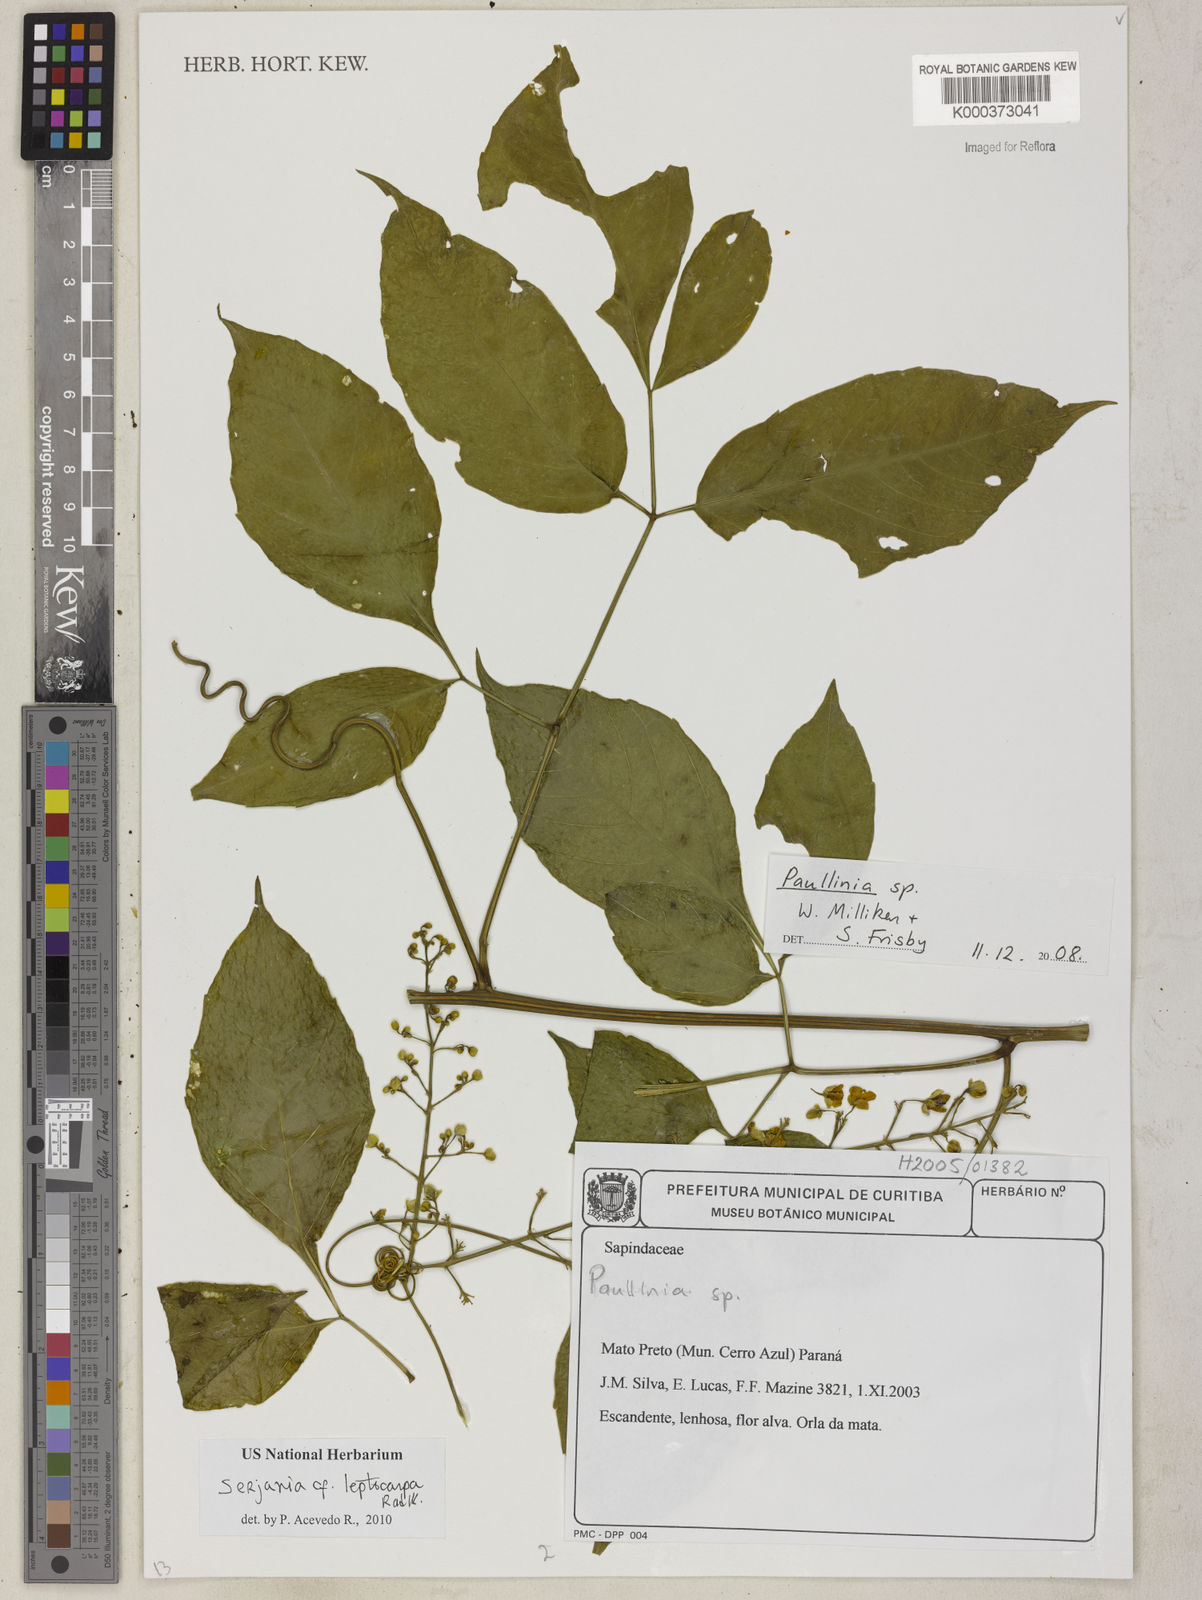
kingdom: Plantae
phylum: Tracheophyta
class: Magnoliopsida
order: Sapindales
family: Sapindaceae
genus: Paullinia
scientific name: Paullinia
